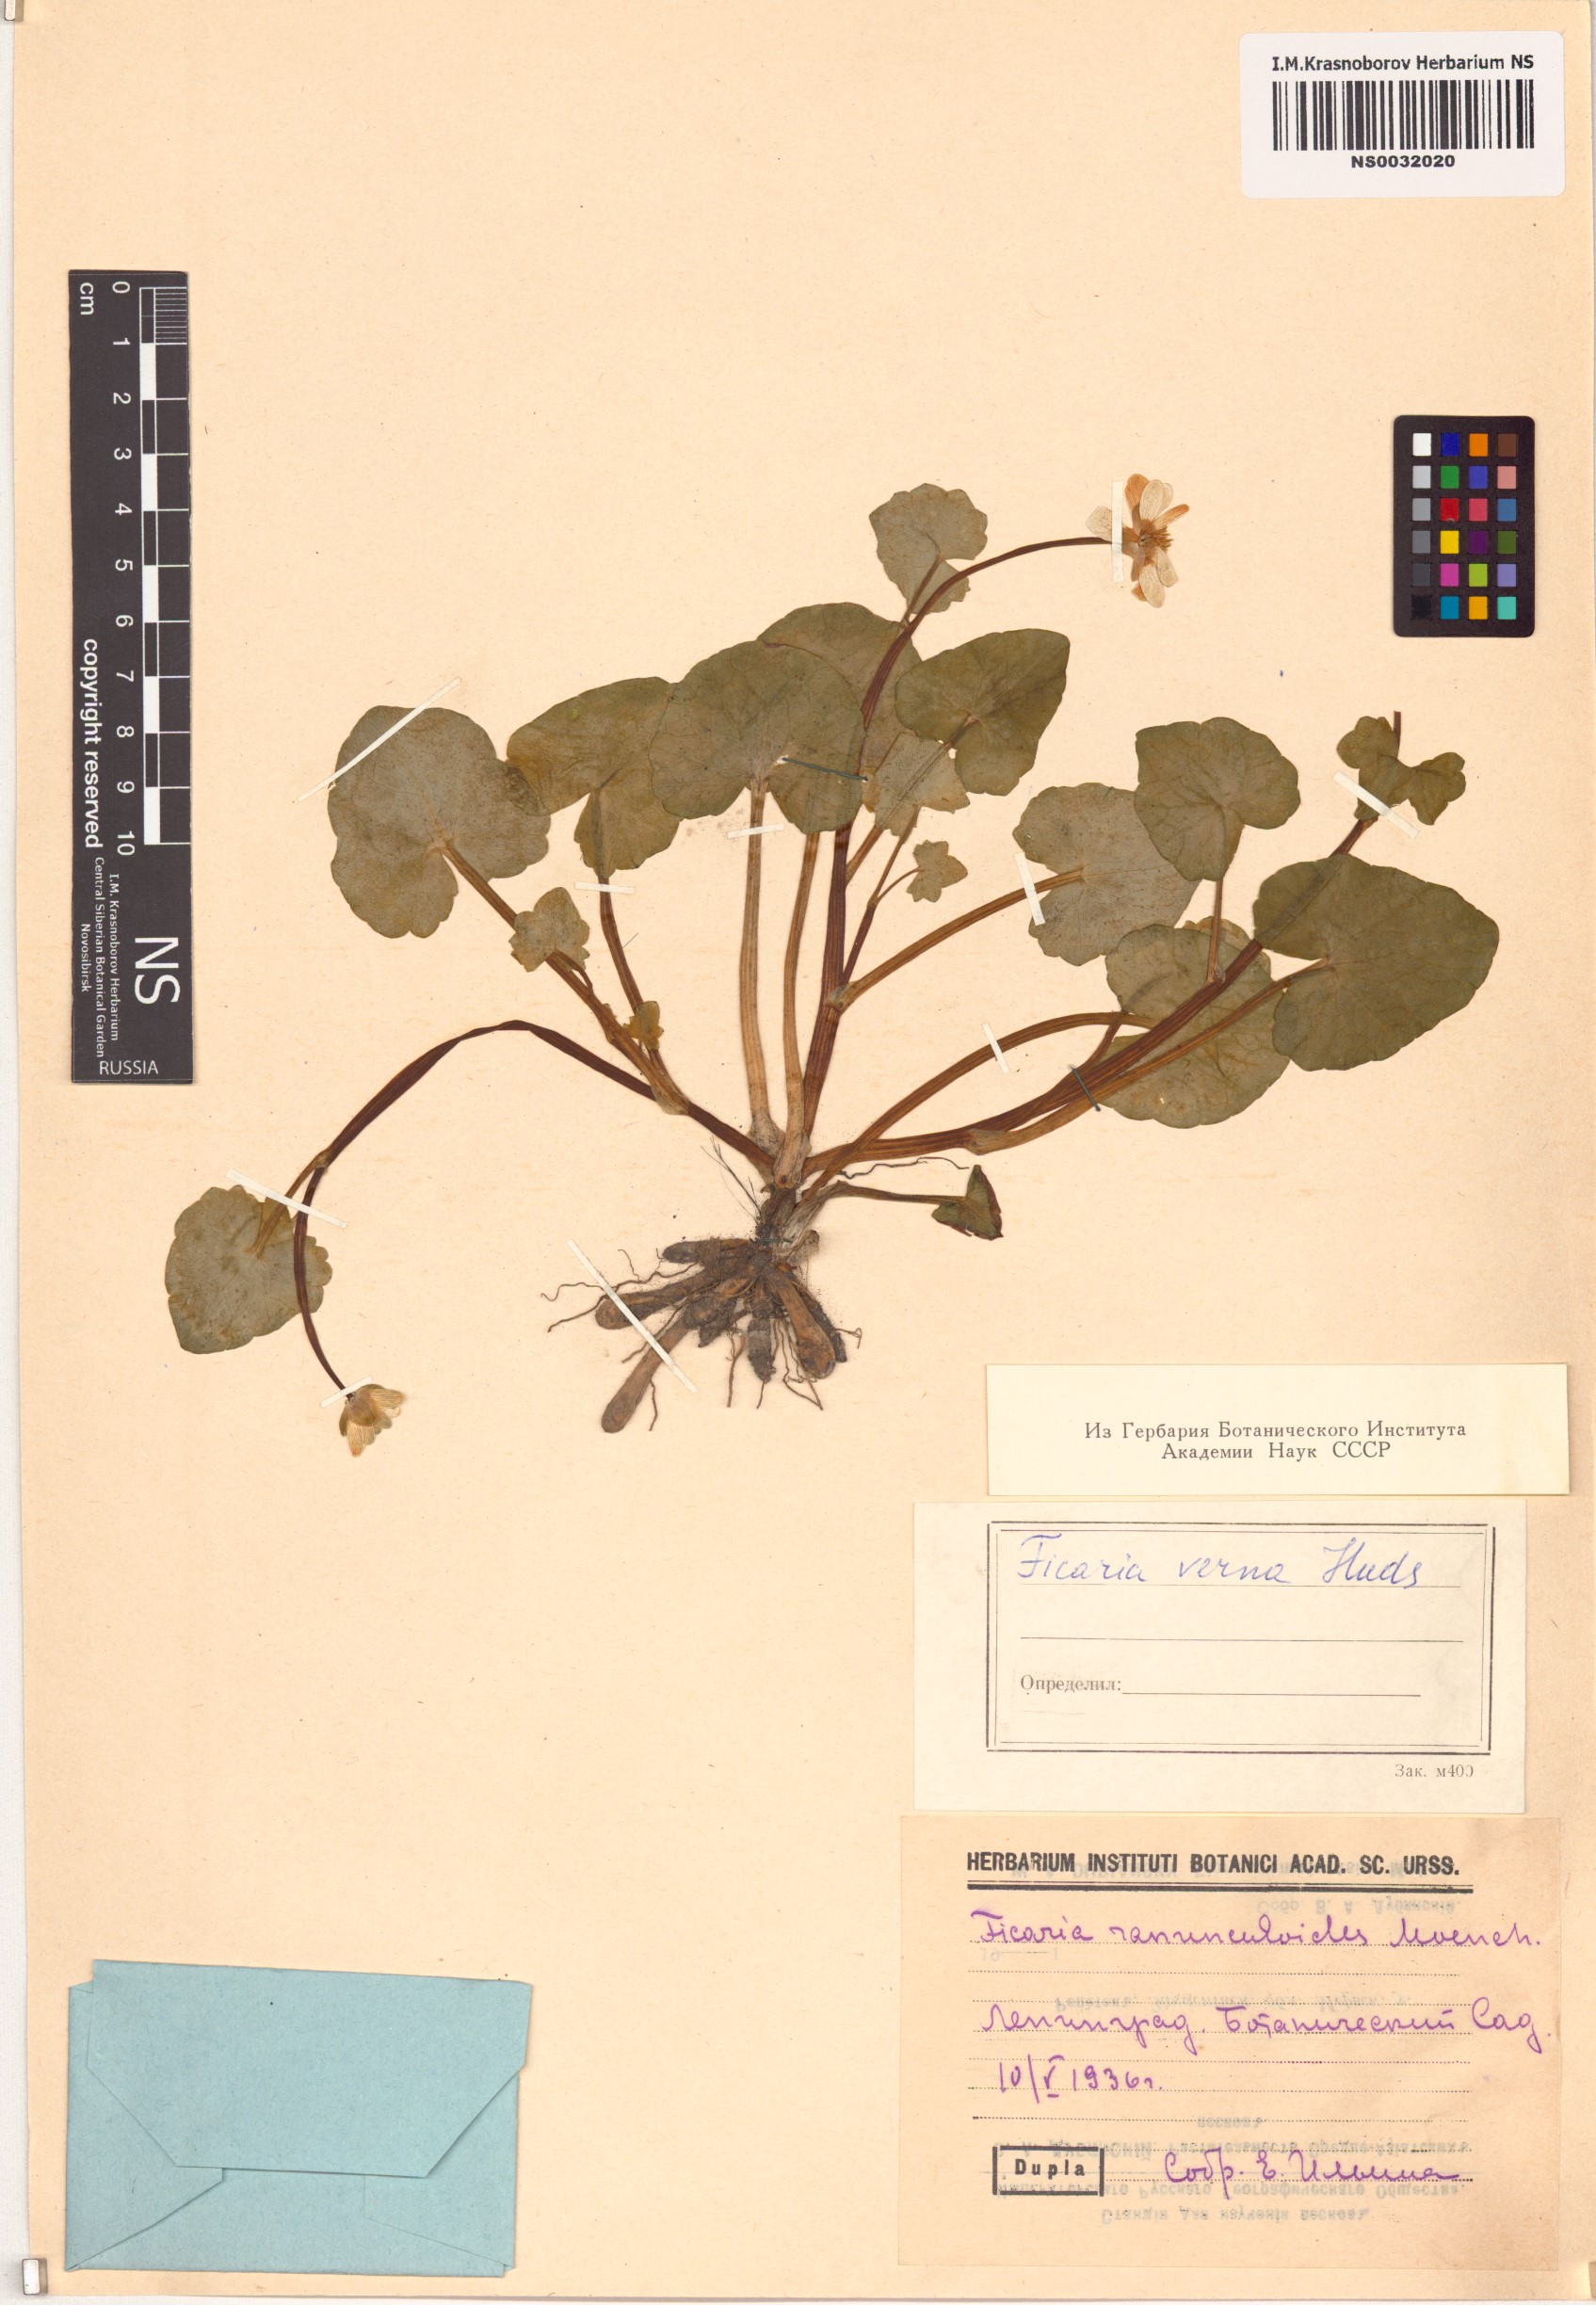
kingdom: Plantae
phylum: Tracheophyta
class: Magnoliopsida
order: Ranunculales
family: Ranunculaceae
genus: Ficaria
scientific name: Ficaria verna
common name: Lesser celandine
